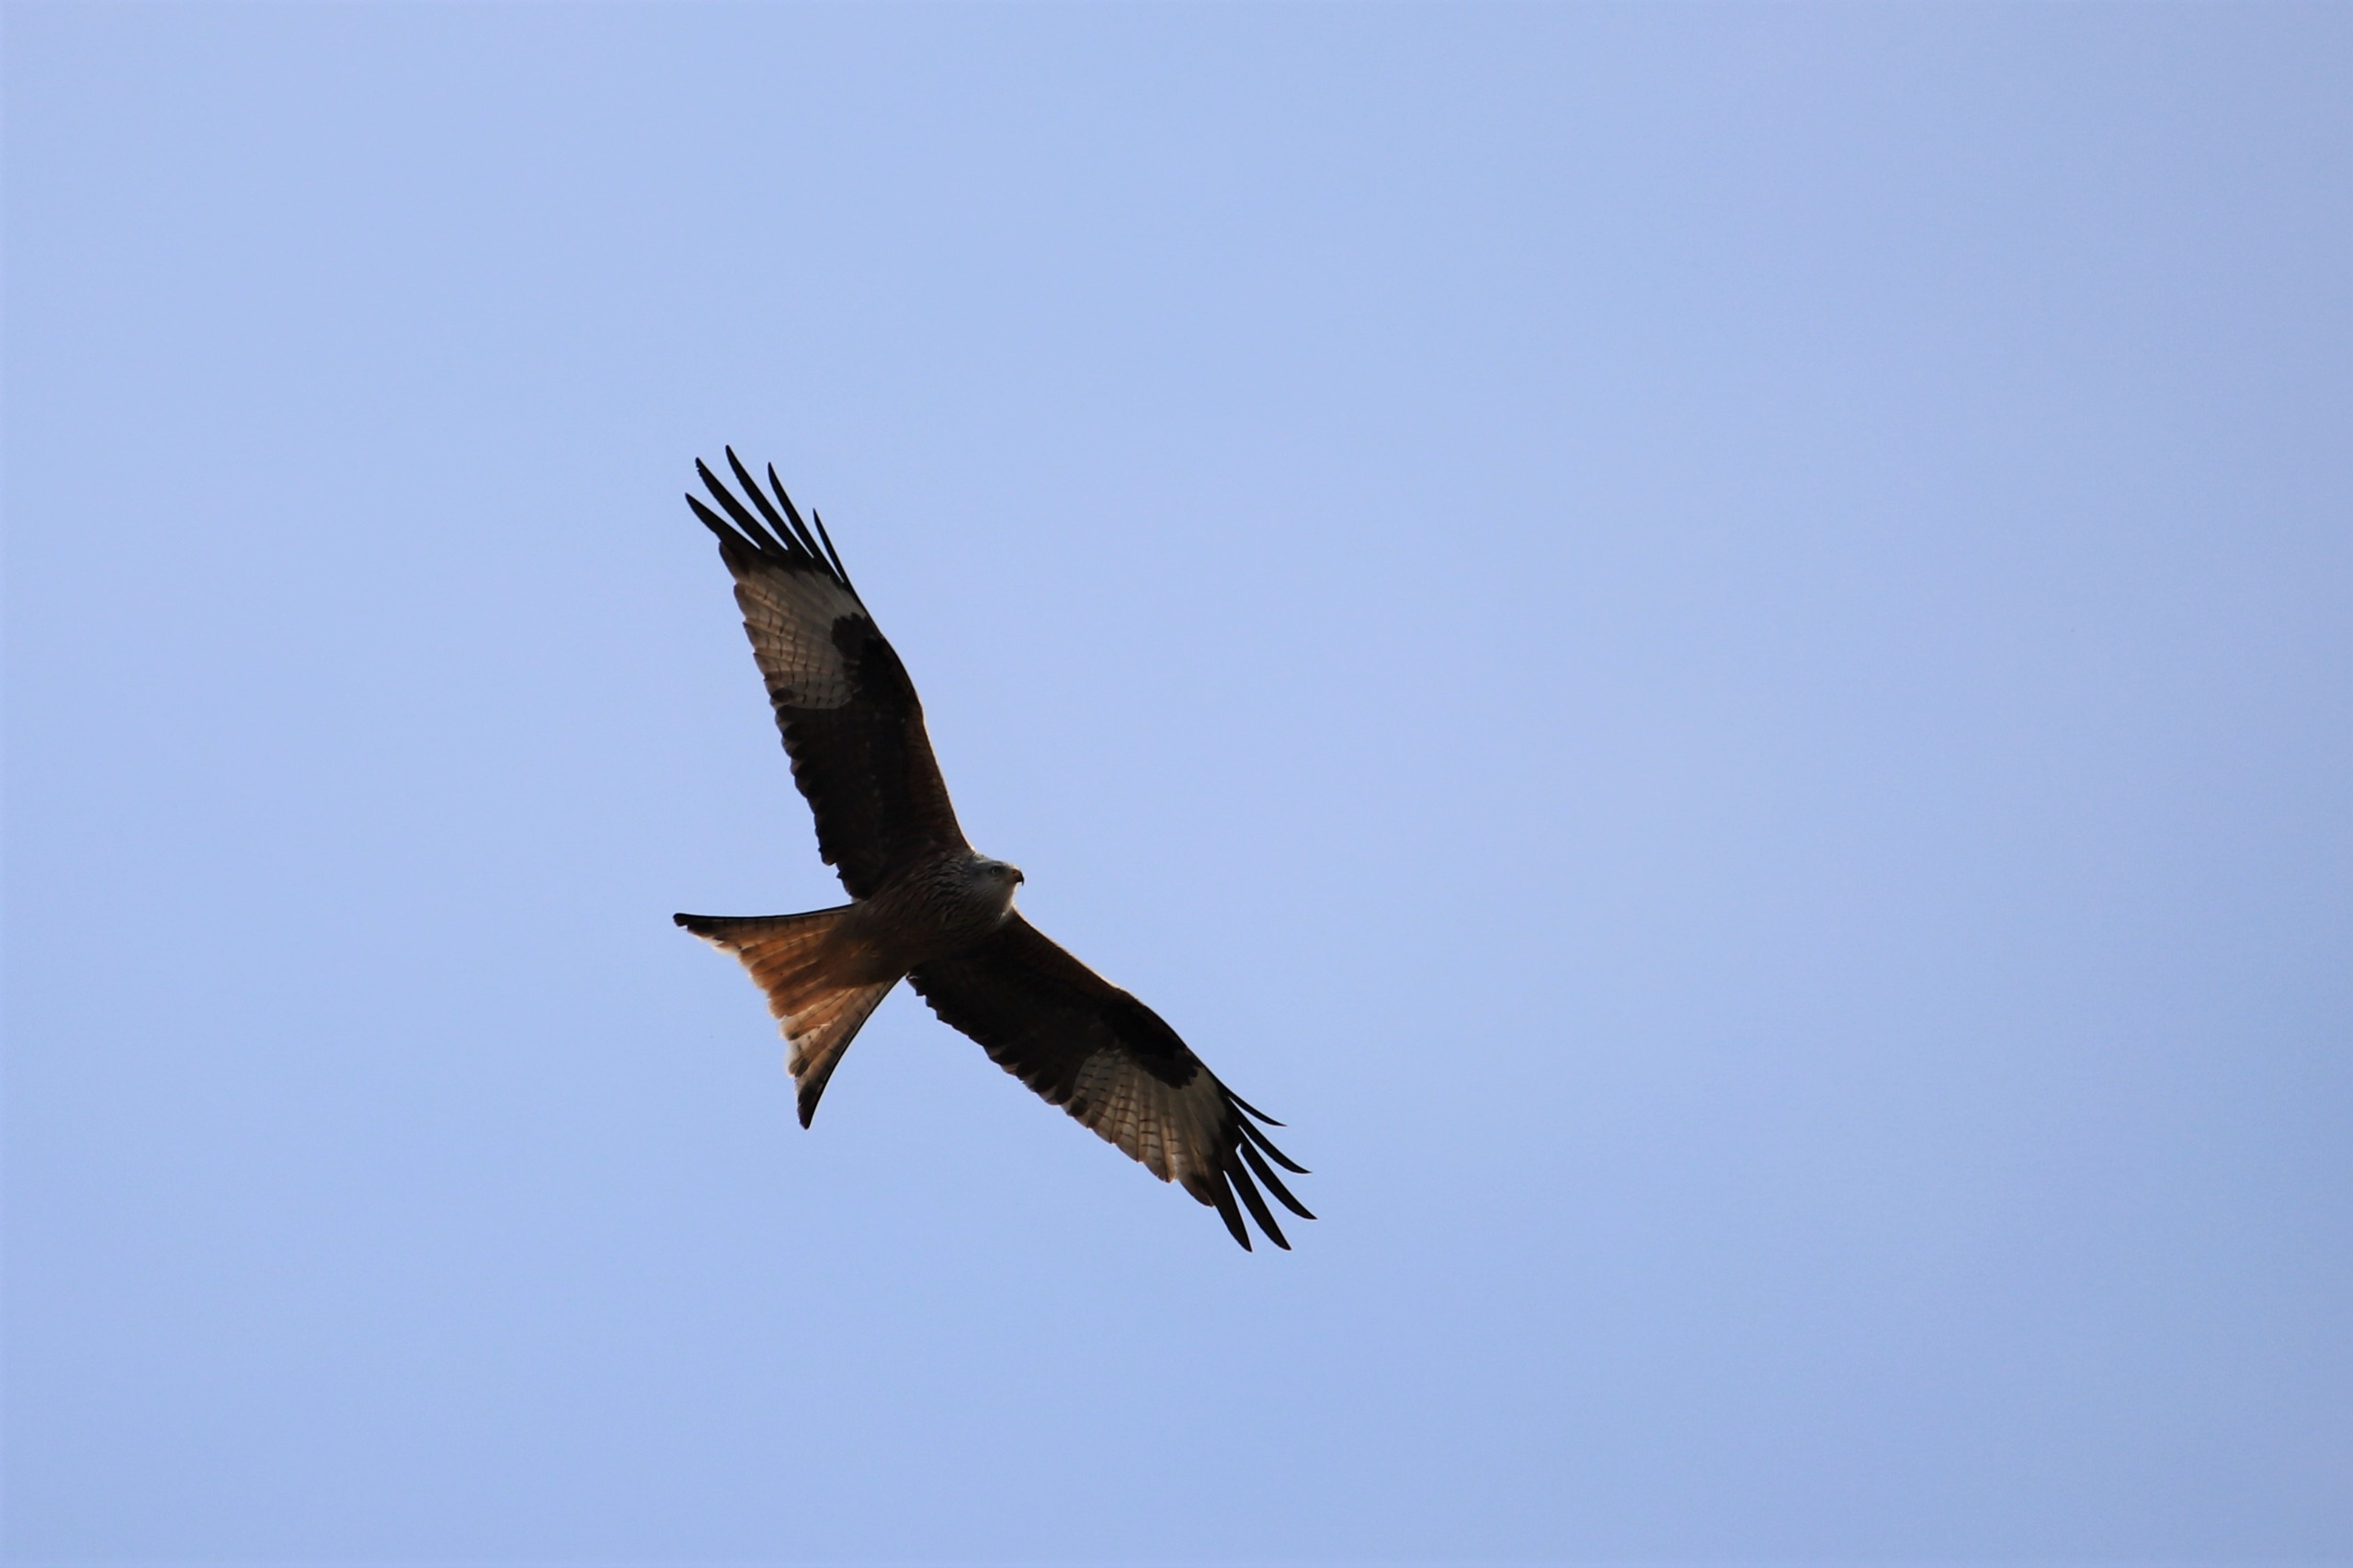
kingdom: Animalia
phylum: Chordata
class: Aves
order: Accipitriformes
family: Accipitridae
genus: Milvus
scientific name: Milvus milvus
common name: Rød glente
